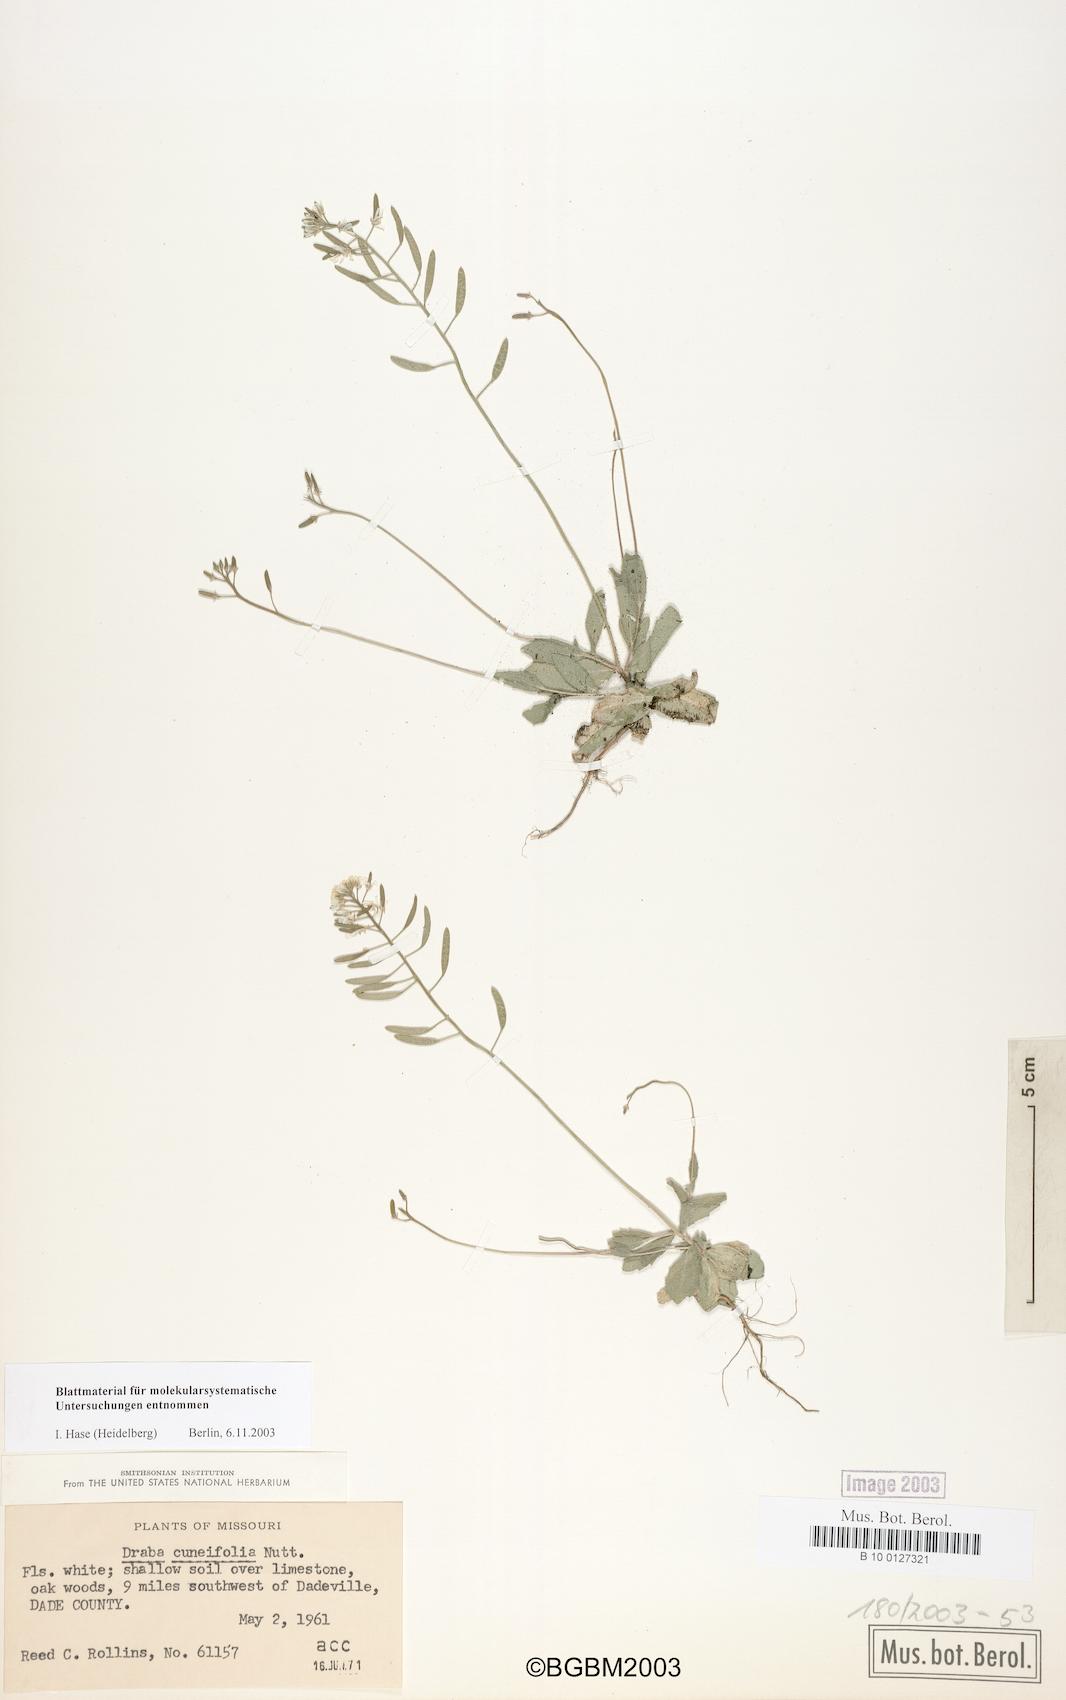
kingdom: Plantae
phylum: Tracheophyta
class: Magnoliopsida
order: Brassicales
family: Brassicaceae
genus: Tomostima
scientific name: Tomostima cuneifolia
